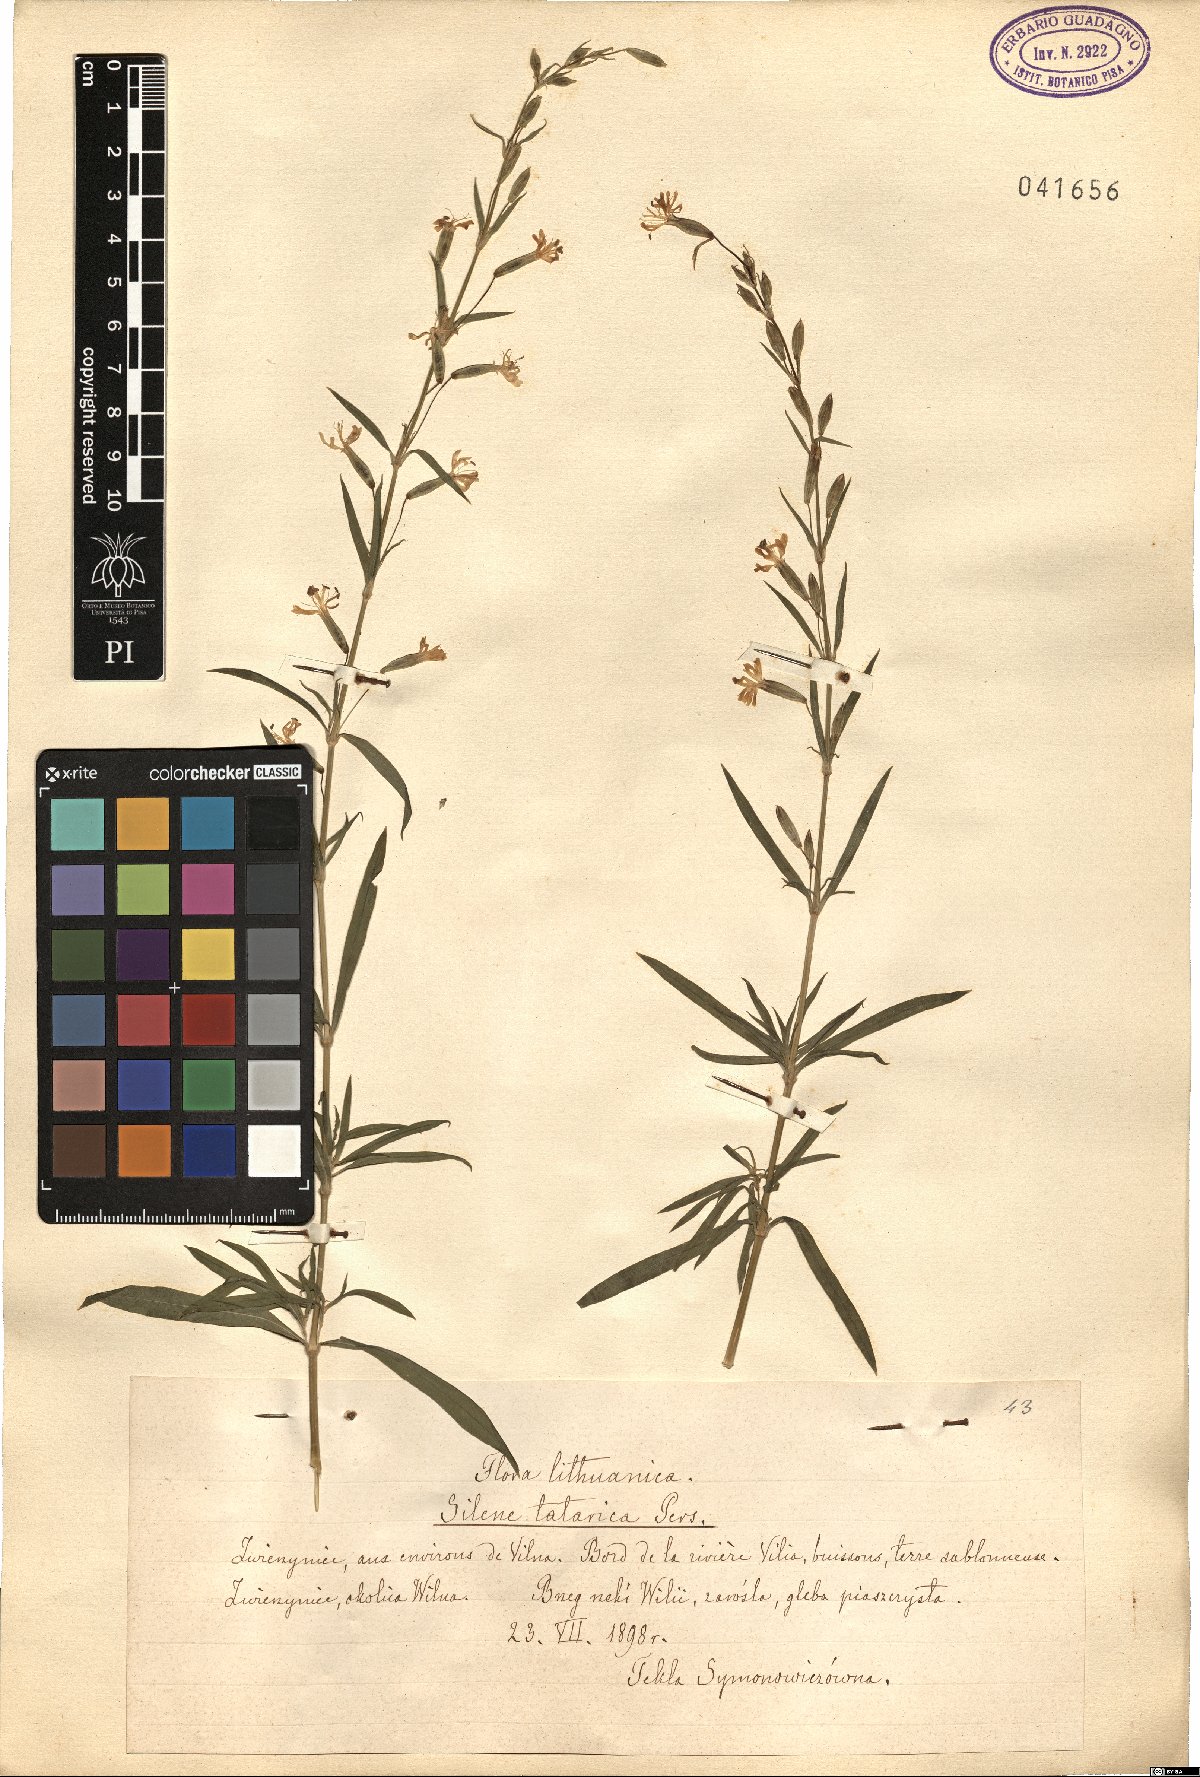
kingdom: Plantae
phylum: Tracheophyta
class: Magnoliopsida
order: Caryophyllales
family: Caryophyllaceae
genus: Silene
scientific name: Silene tatarica
